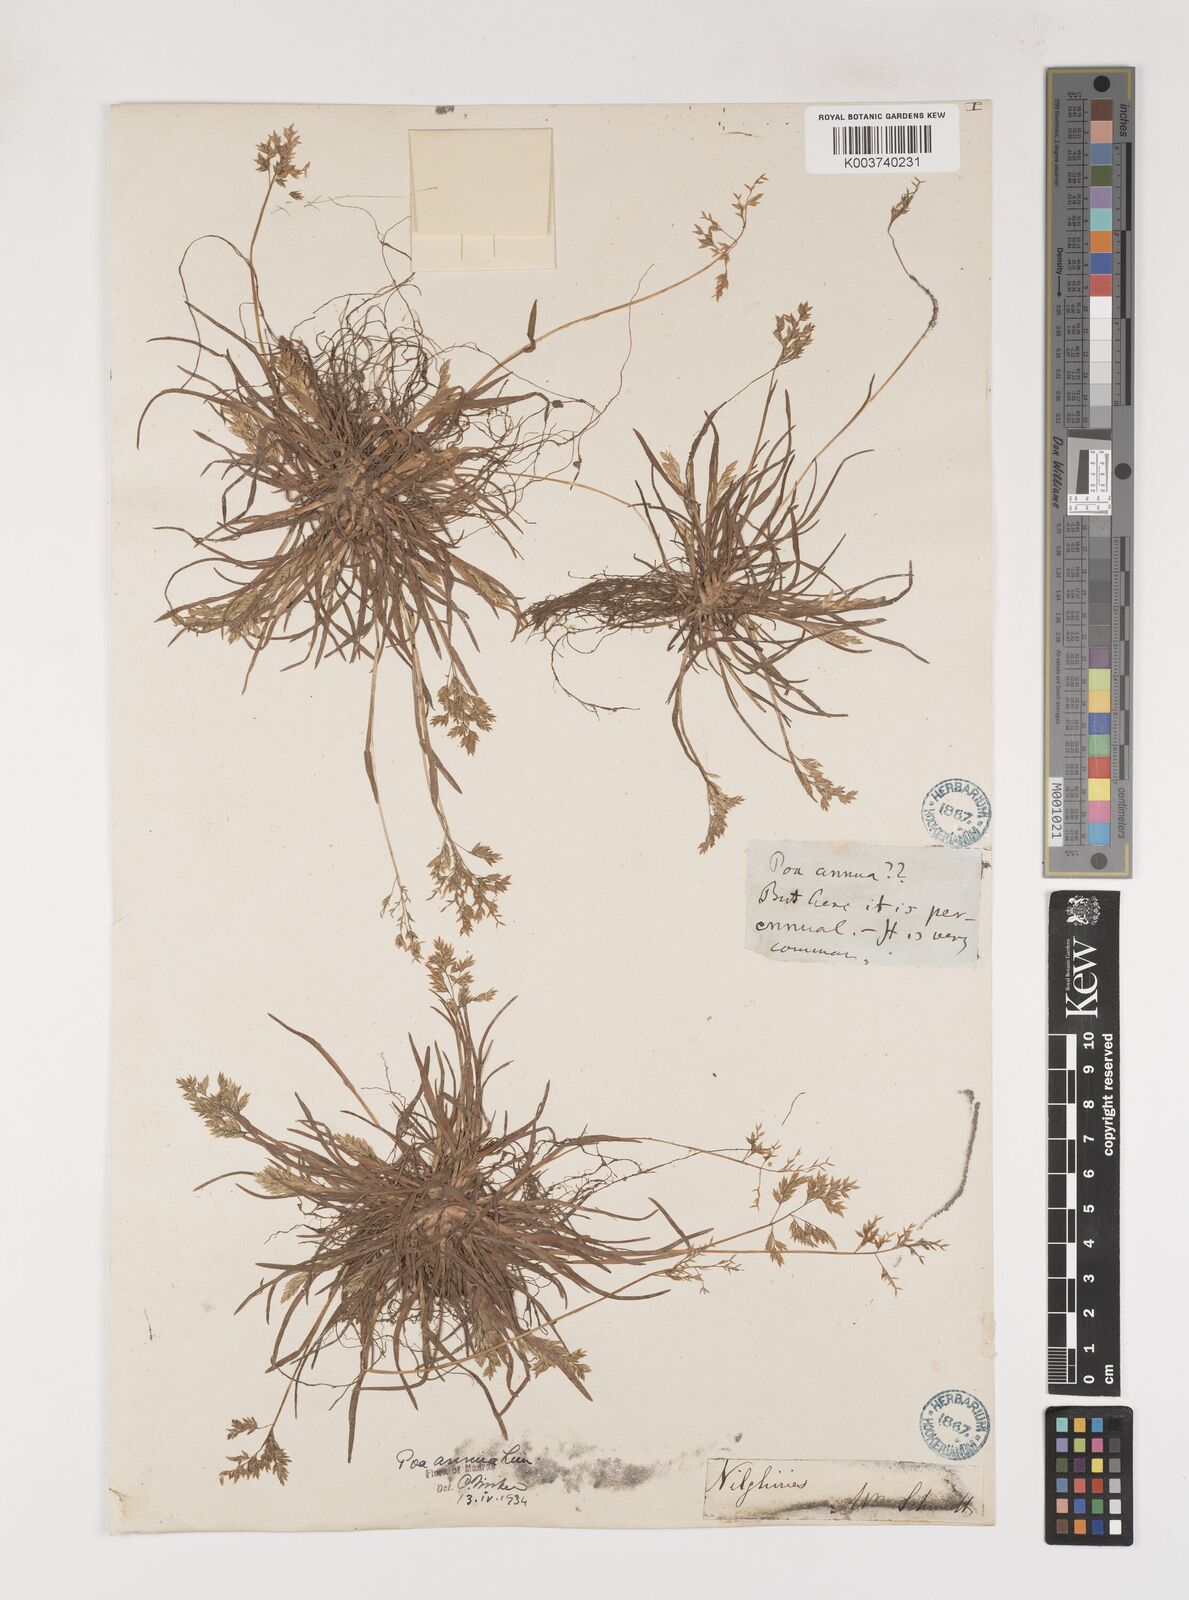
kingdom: Plantae
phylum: Tracheophyta
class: Liliopsida
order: Poales
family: Poaceae
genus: Poa
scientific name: Poa annua
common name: Annual bluegrass
